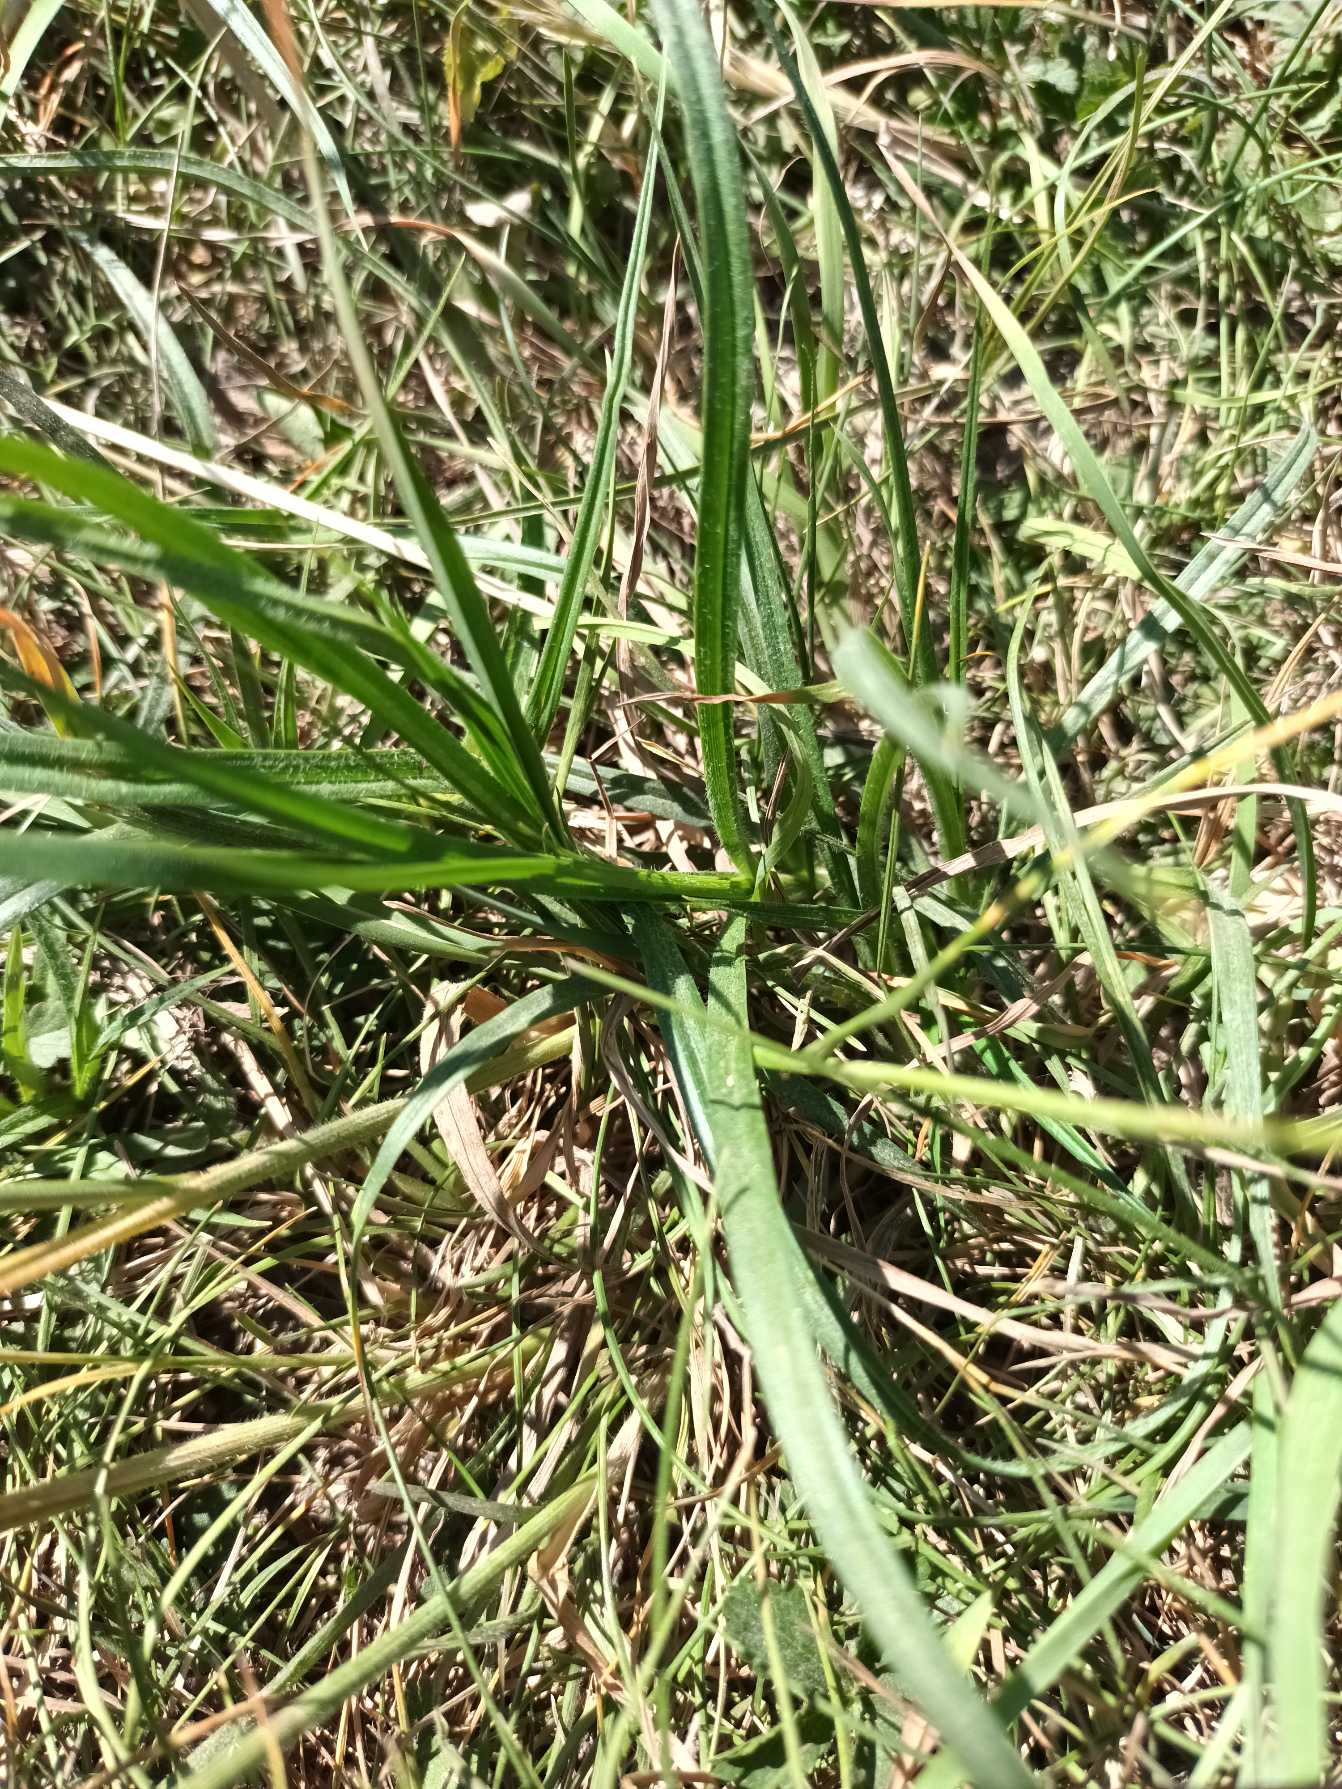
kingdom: Plantae
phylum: Tracheophyta
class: Liliopsida
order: Poales
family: Poaceae
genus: Helictochloa
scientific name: Helictochloa pratensis
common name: Eng-havre
